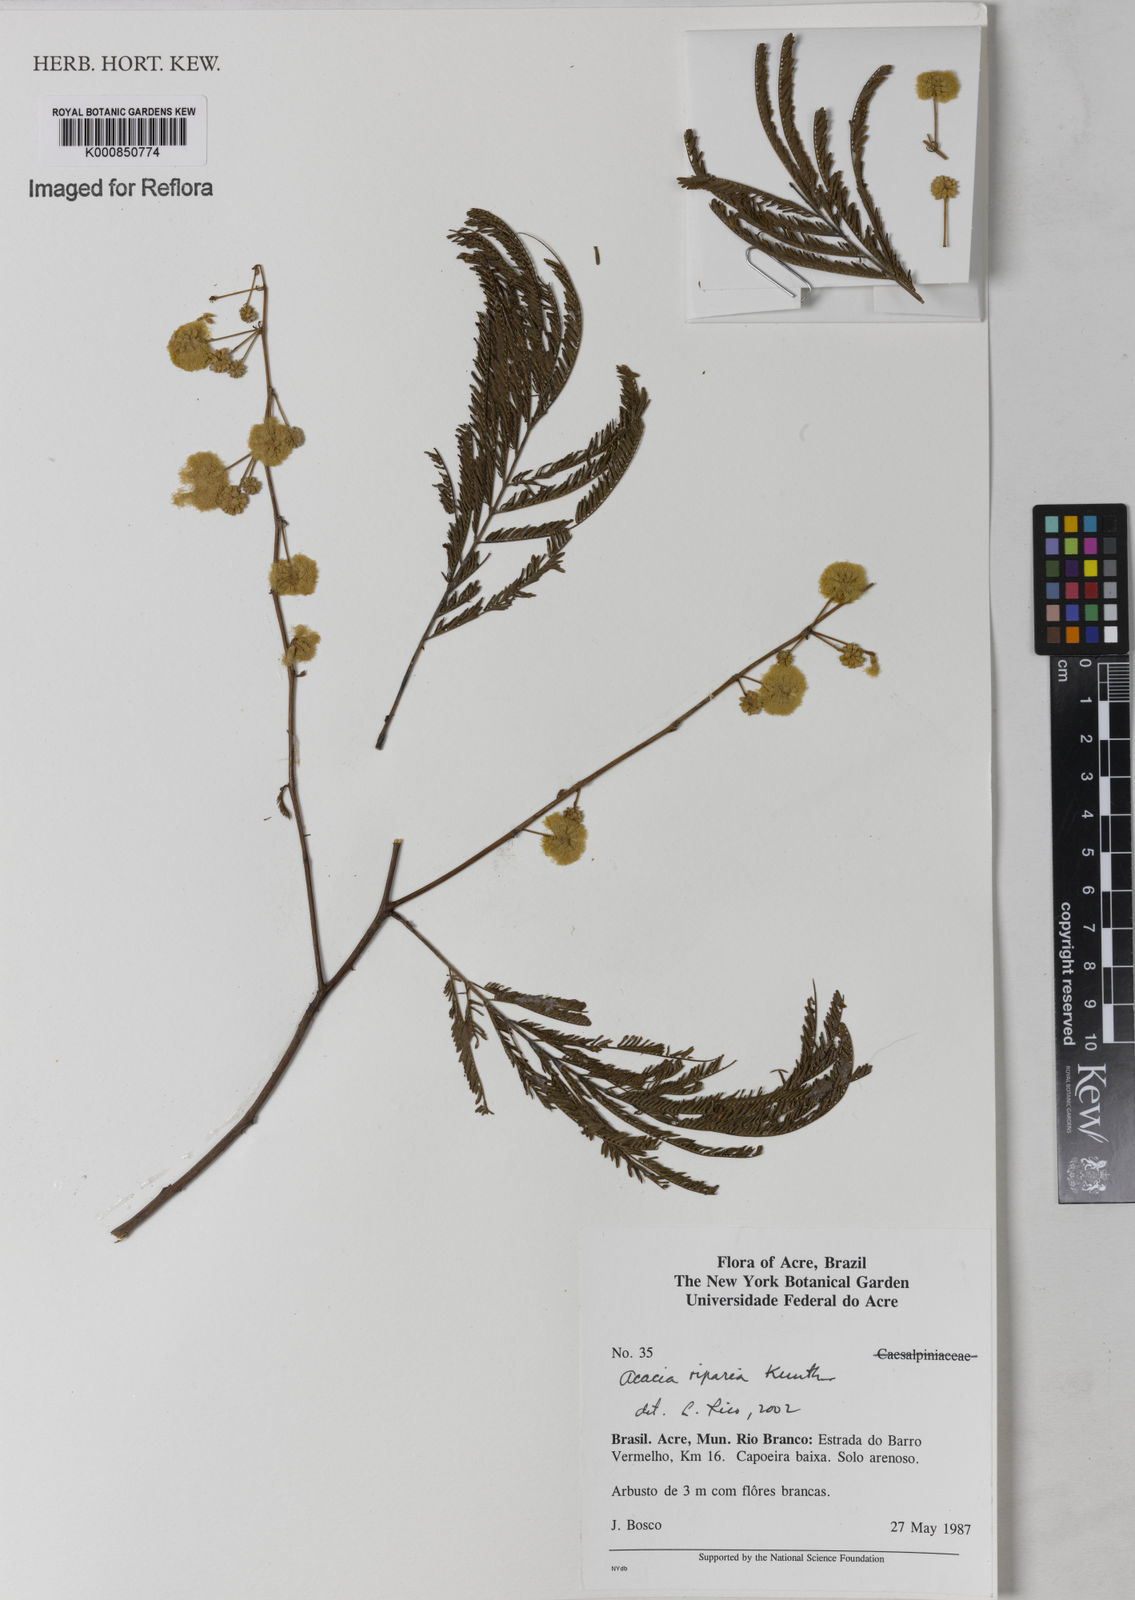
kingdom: Plantae
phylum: Tracheophyta
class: Magnoliopsida
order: Fabales
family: Fabaceae
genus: Senegalia
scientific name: Senegalia riparia
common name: Catch-and-keep
